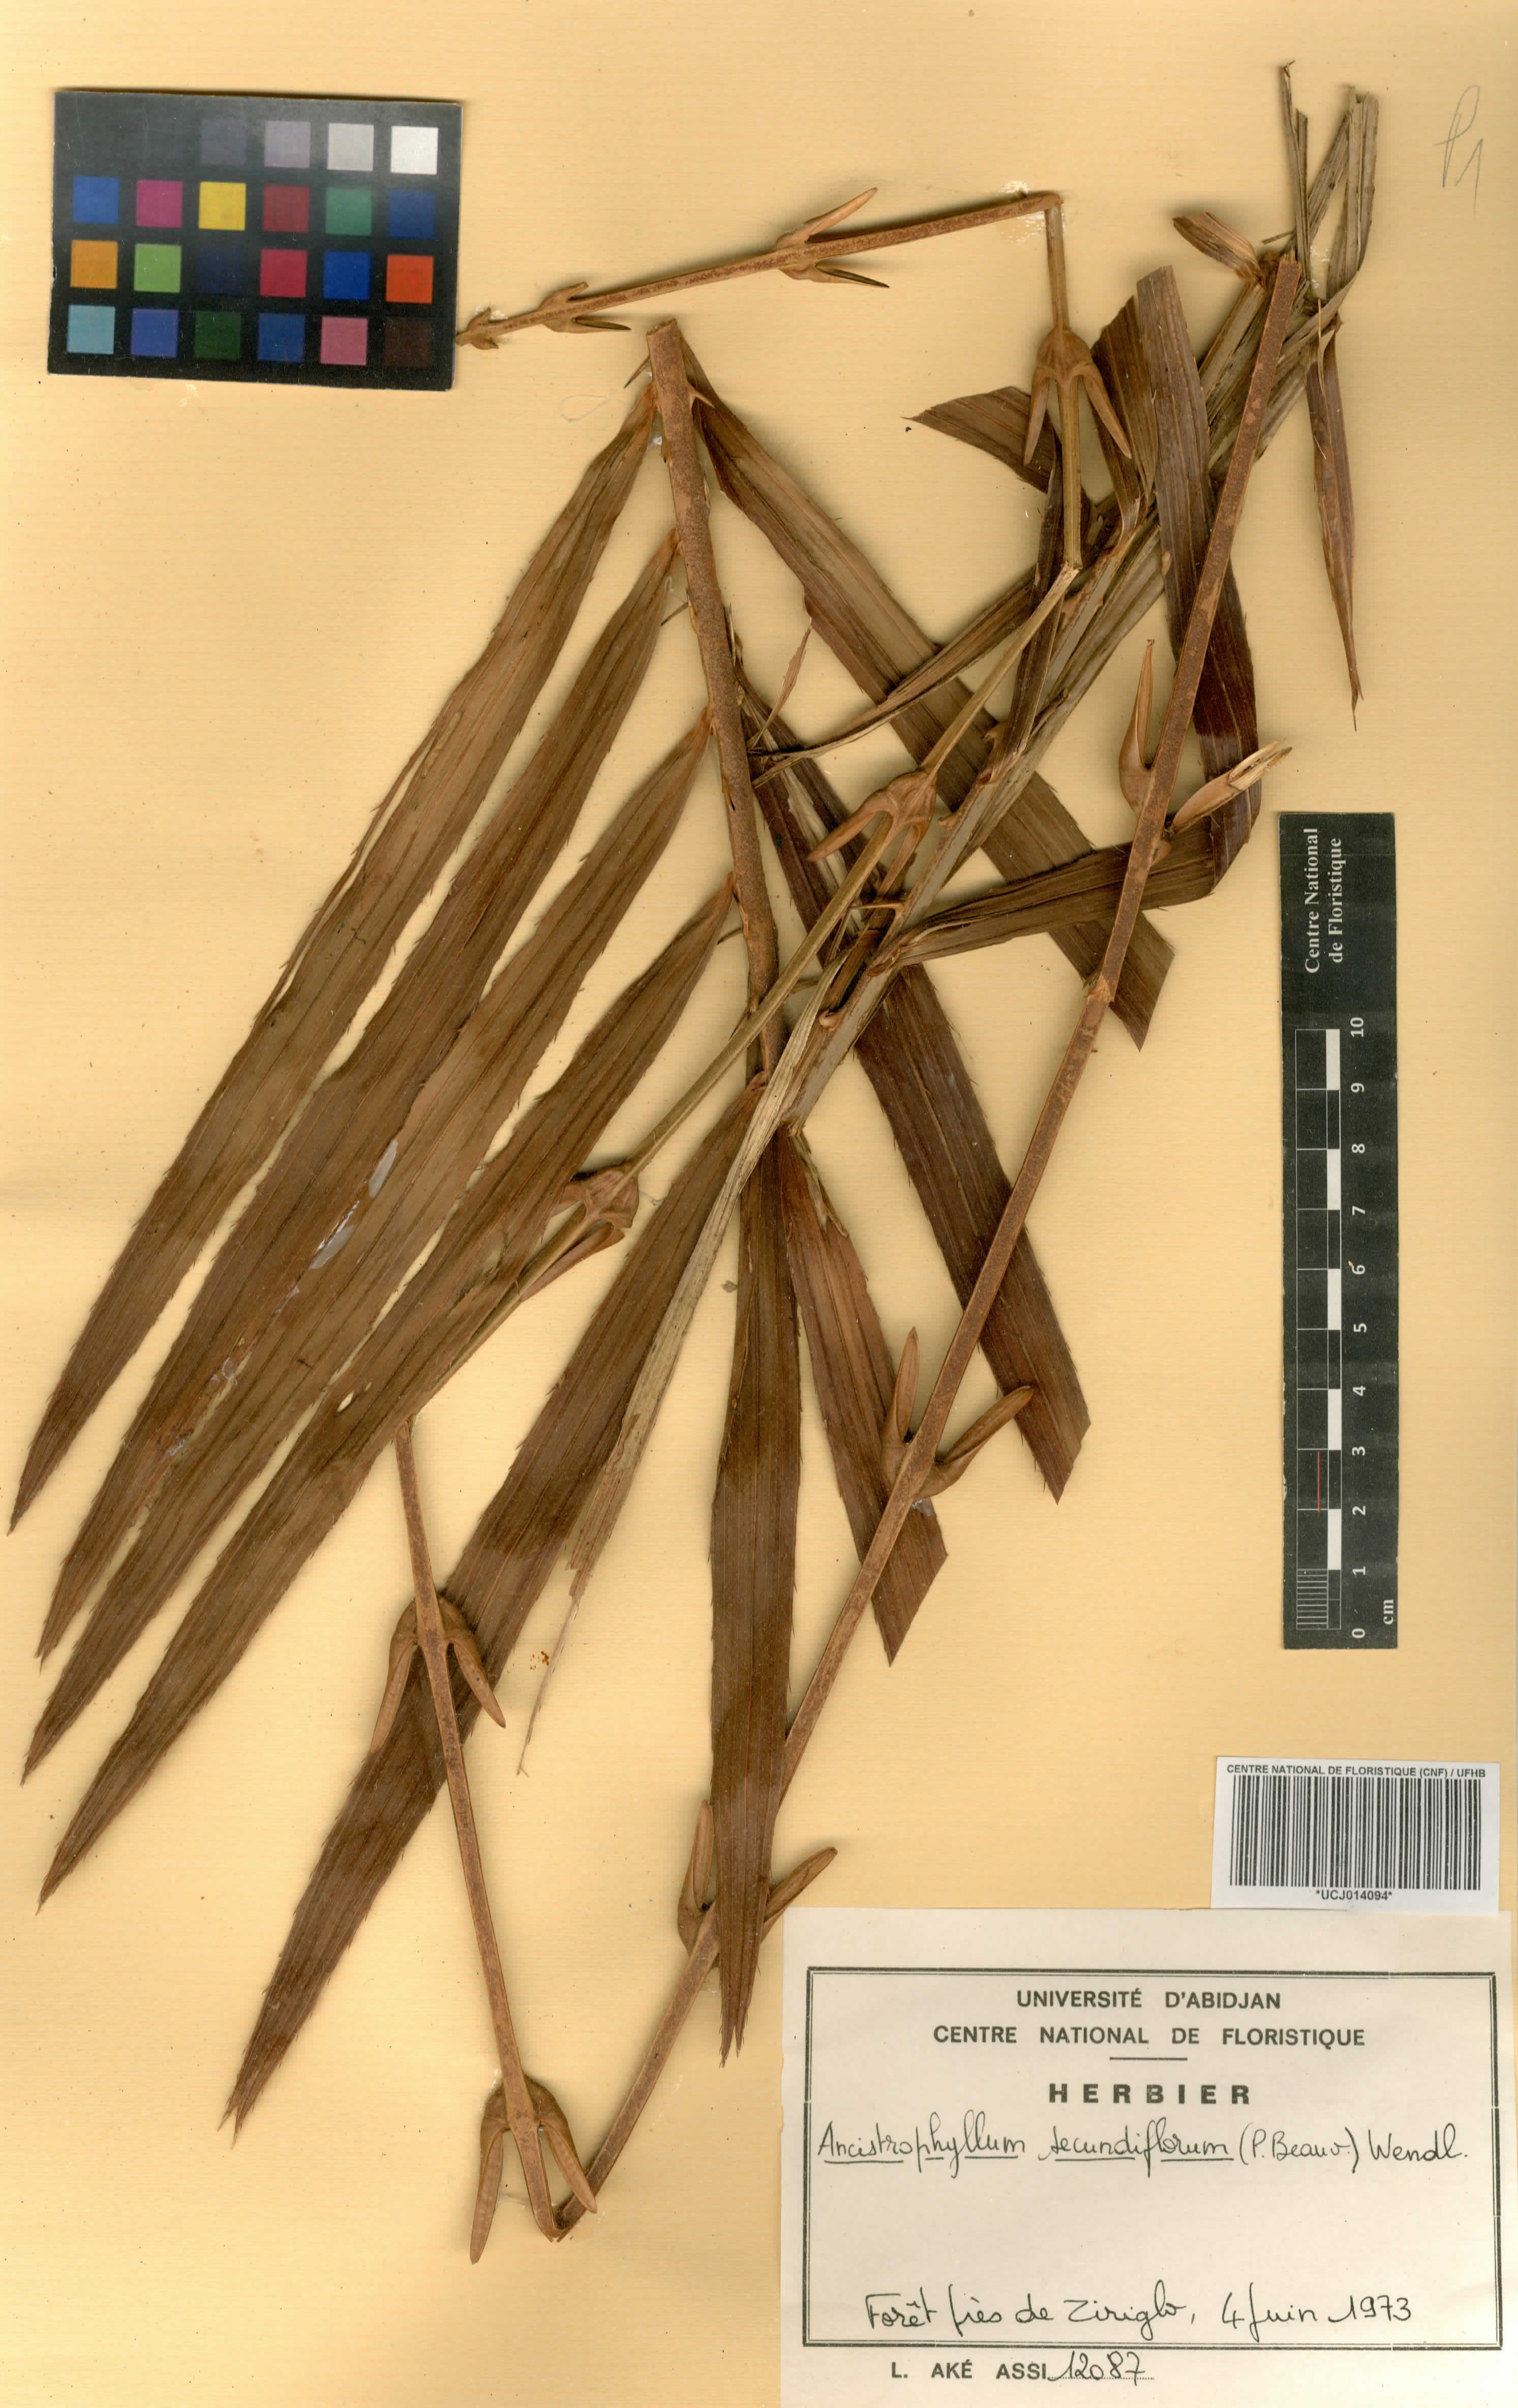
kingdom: Plantae
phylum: Tracheophyta
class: Liliopsida
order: Arecales
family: Arecaceae
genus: Laccosperma
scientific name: Laccosperma secundiflorum
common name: Rattan
